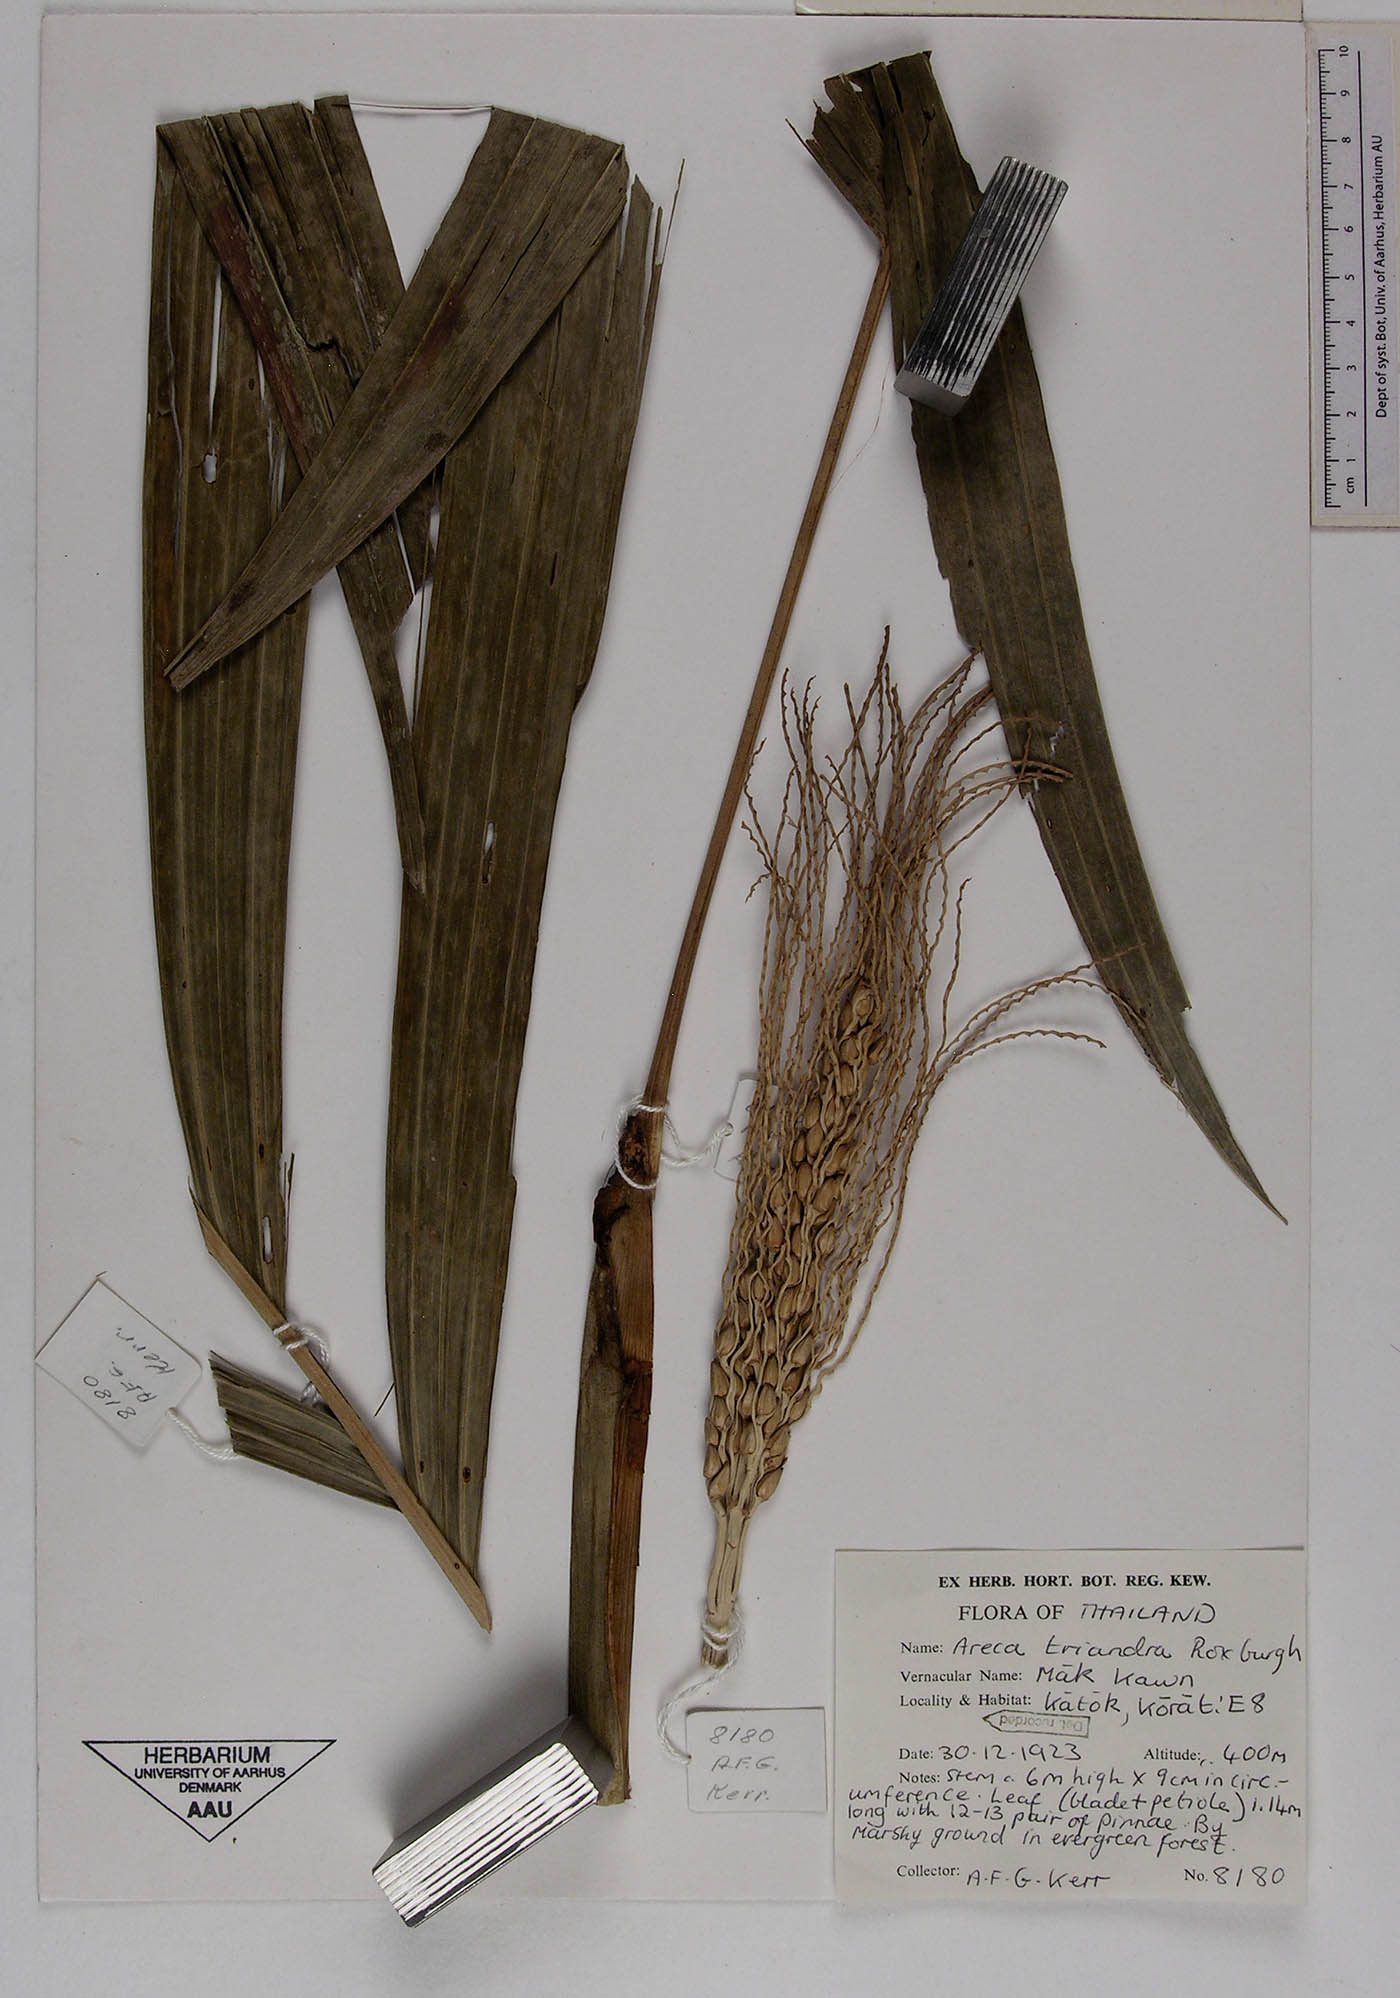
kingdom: Plantae
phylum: Tracheophyta
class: Liliopsida
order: Arecales
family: Arecaceae
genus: Areca
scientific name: Areca triandra
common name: Australian areca palm
